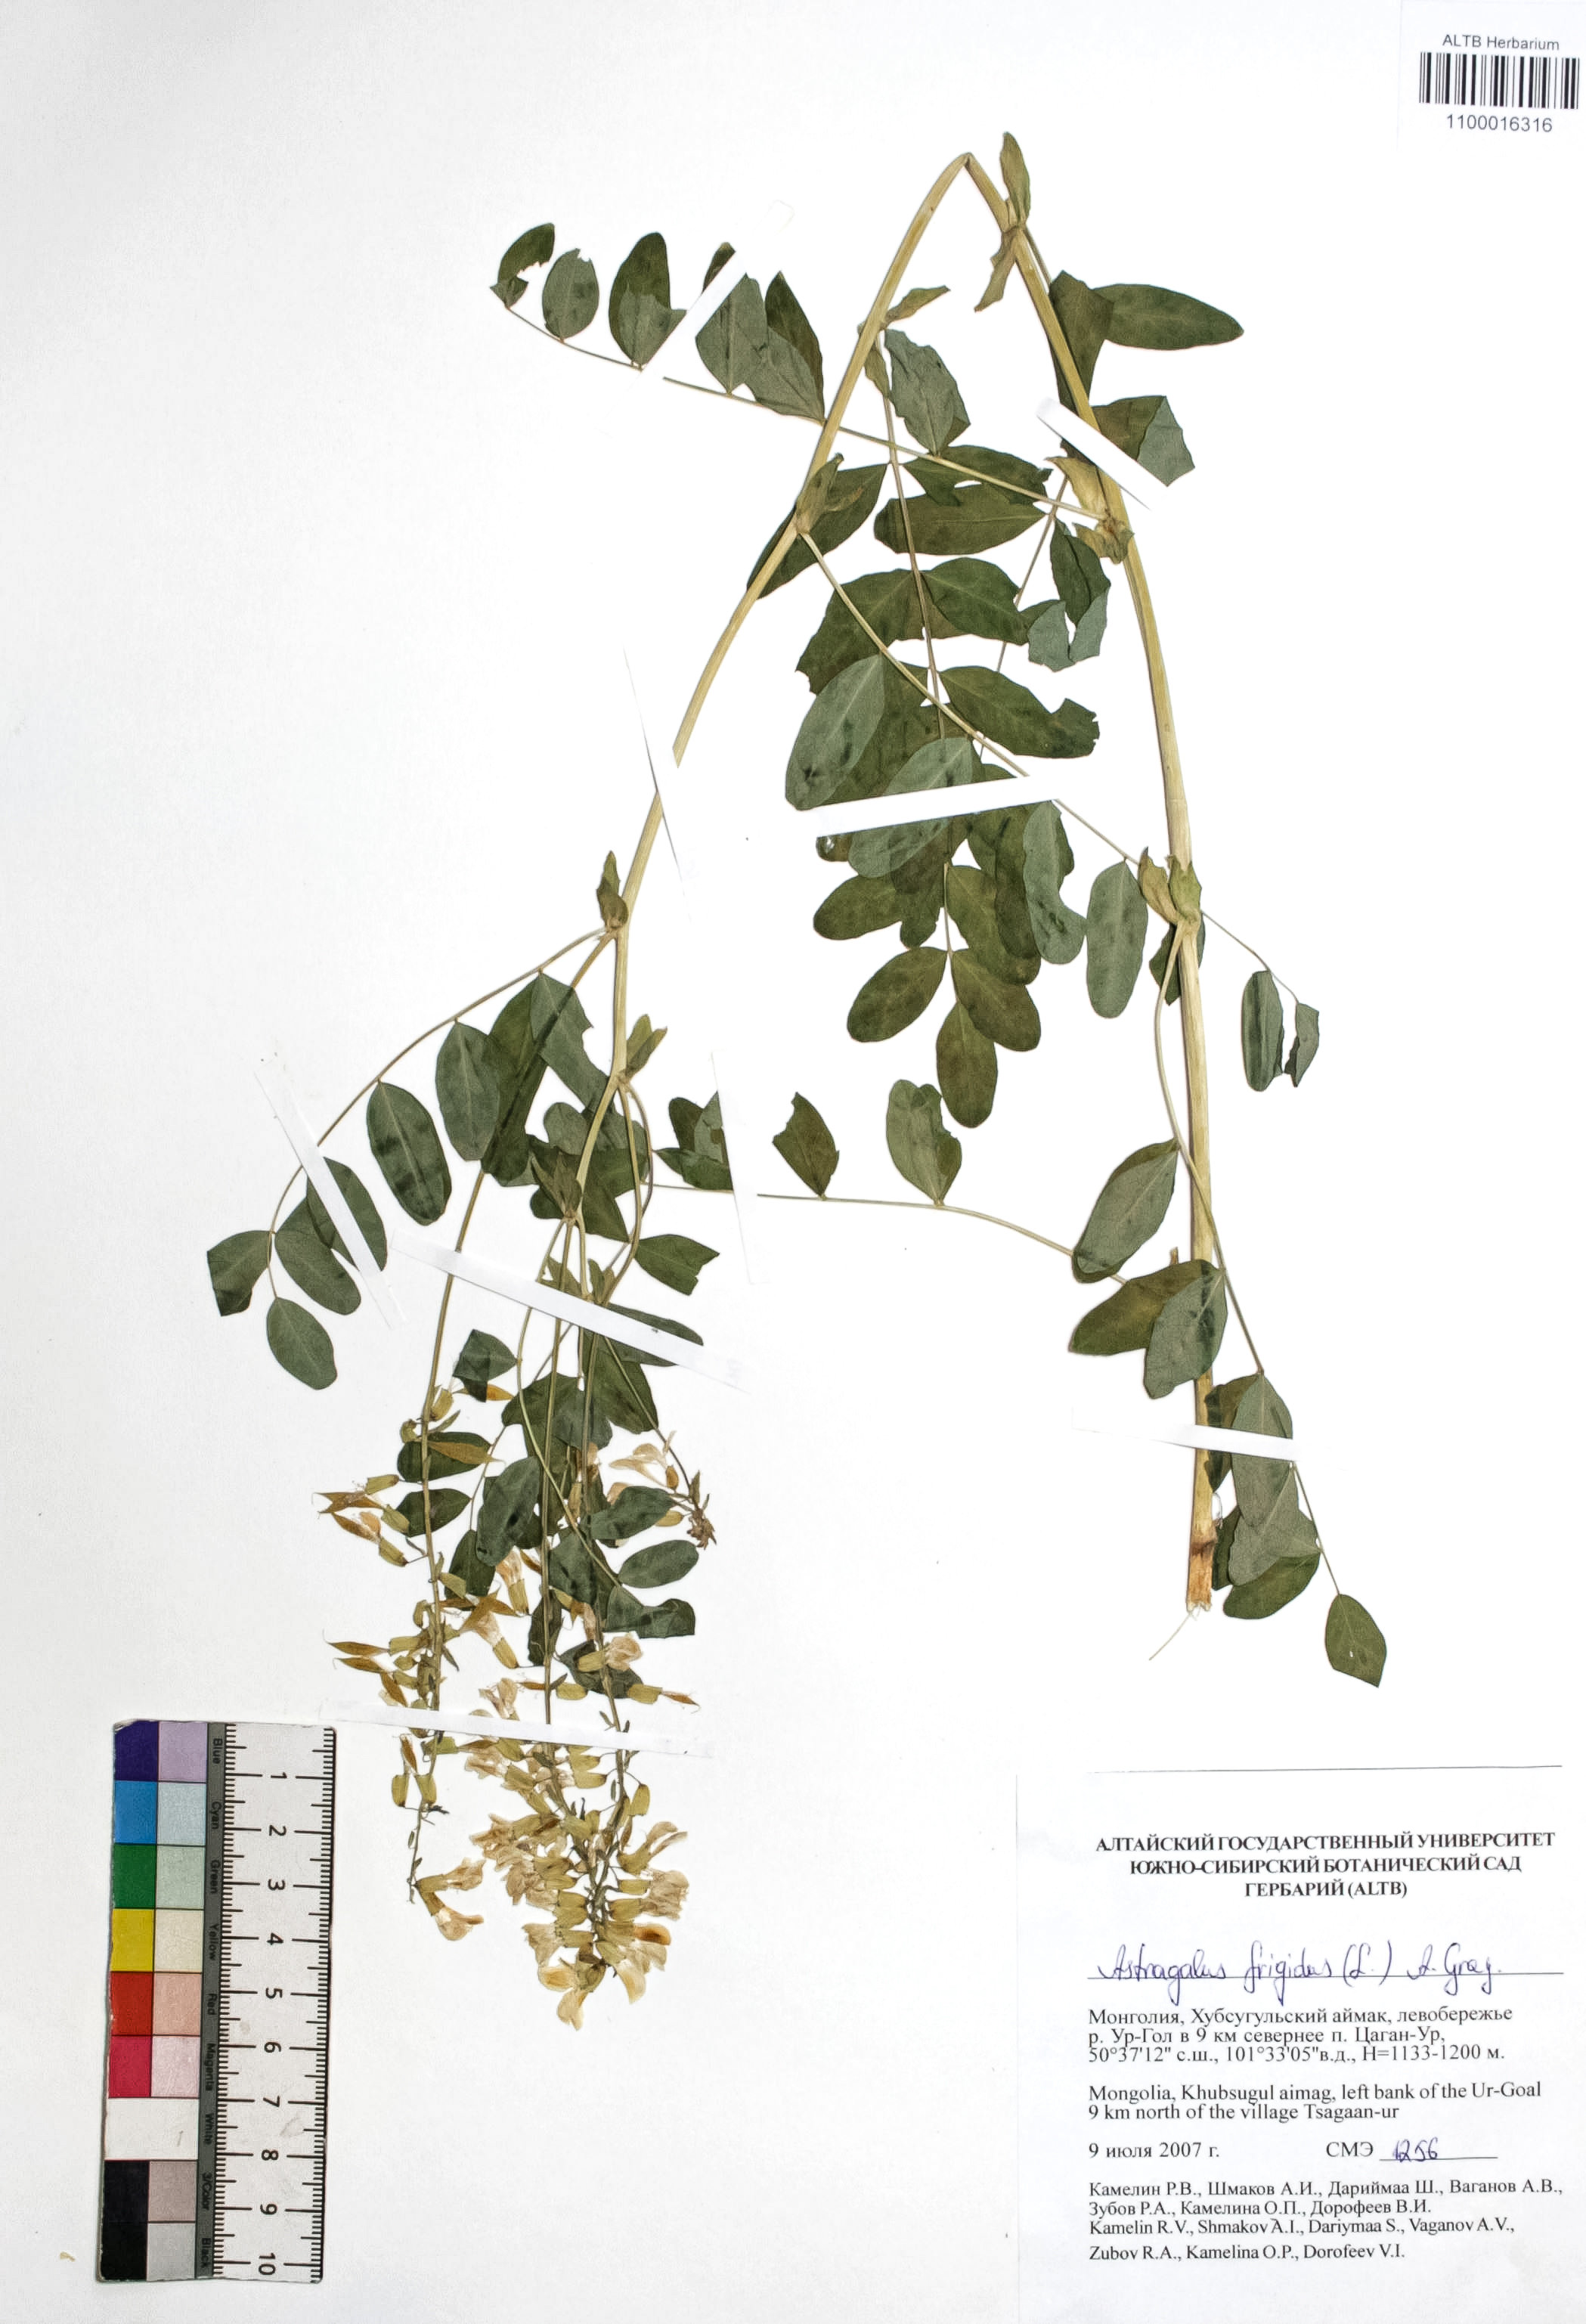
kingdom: Plantae
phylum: Tracheophyta
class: Magnoliopsida
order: Fabales
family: Fabaceae
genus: Astragalus
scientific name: Astragalus frigidus
